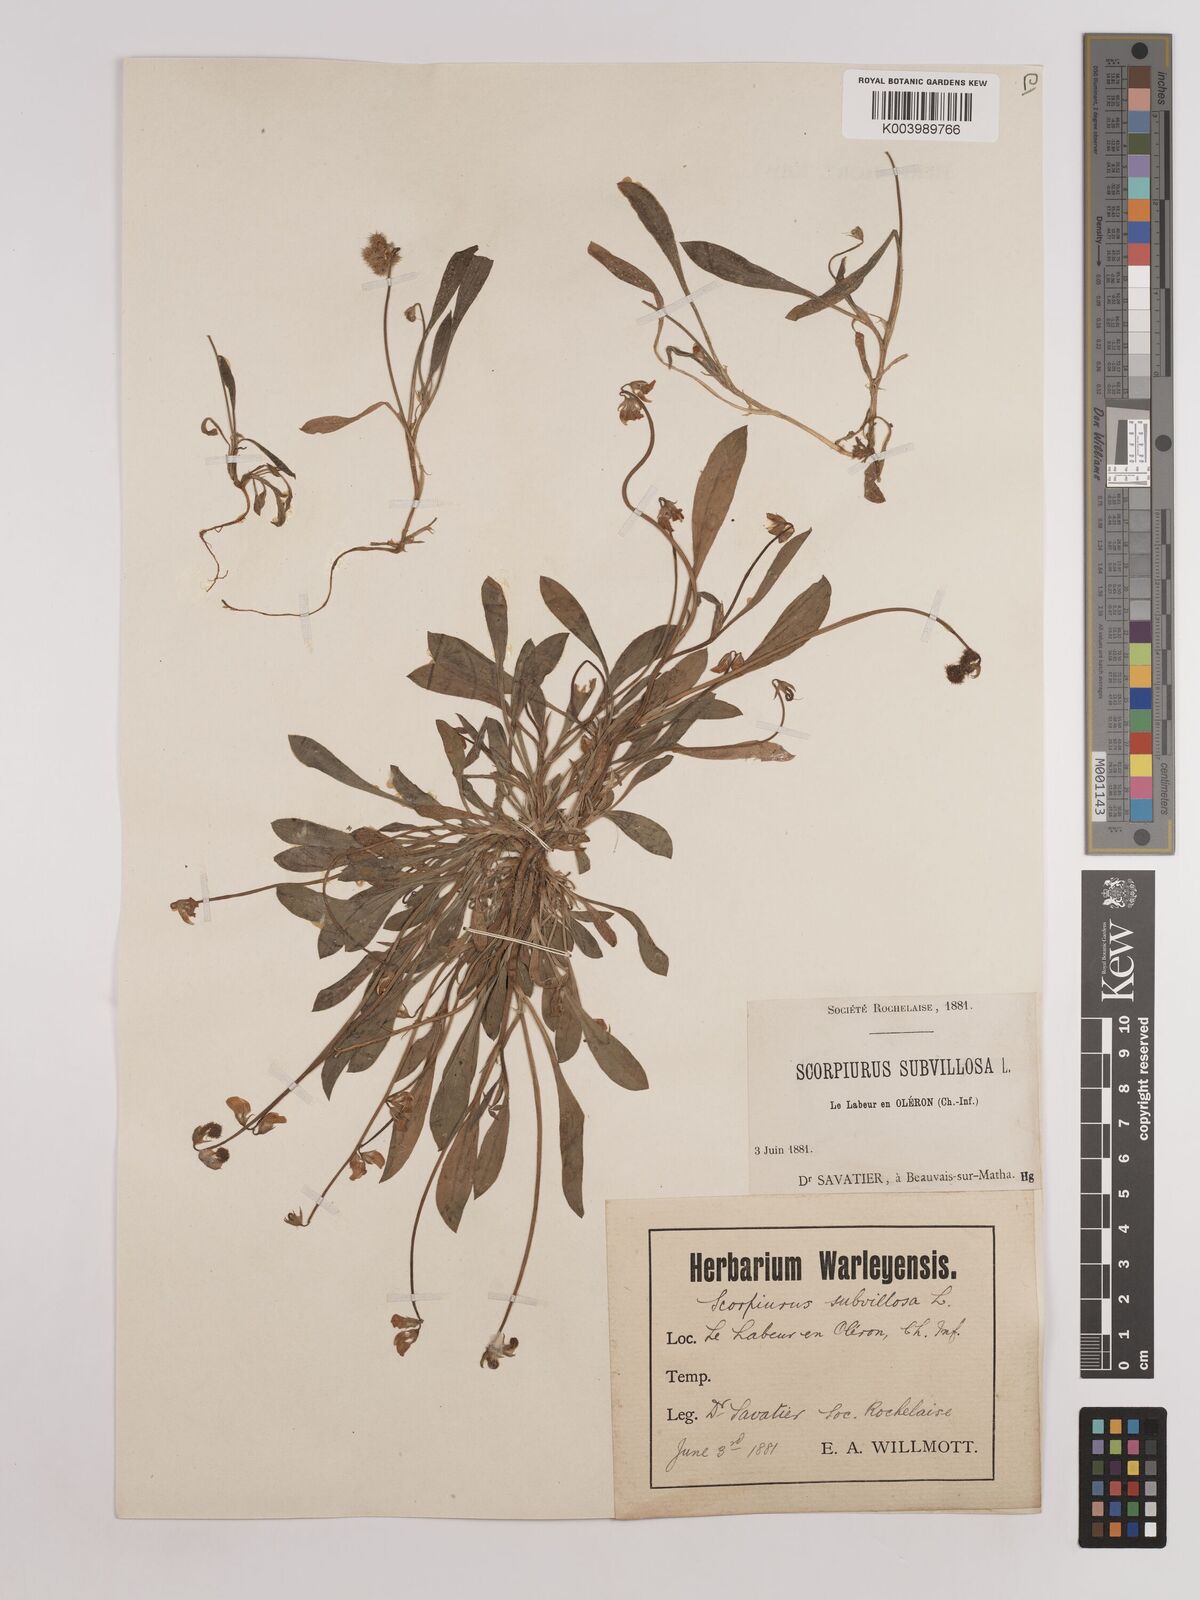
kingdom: Plantae
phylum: Tracheophyta
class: Magnoliopsida
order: Fabales
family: Fabaceae
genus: Scorpiurus
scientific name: Scorpiurus muricatus
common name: Caterpillar-plant
